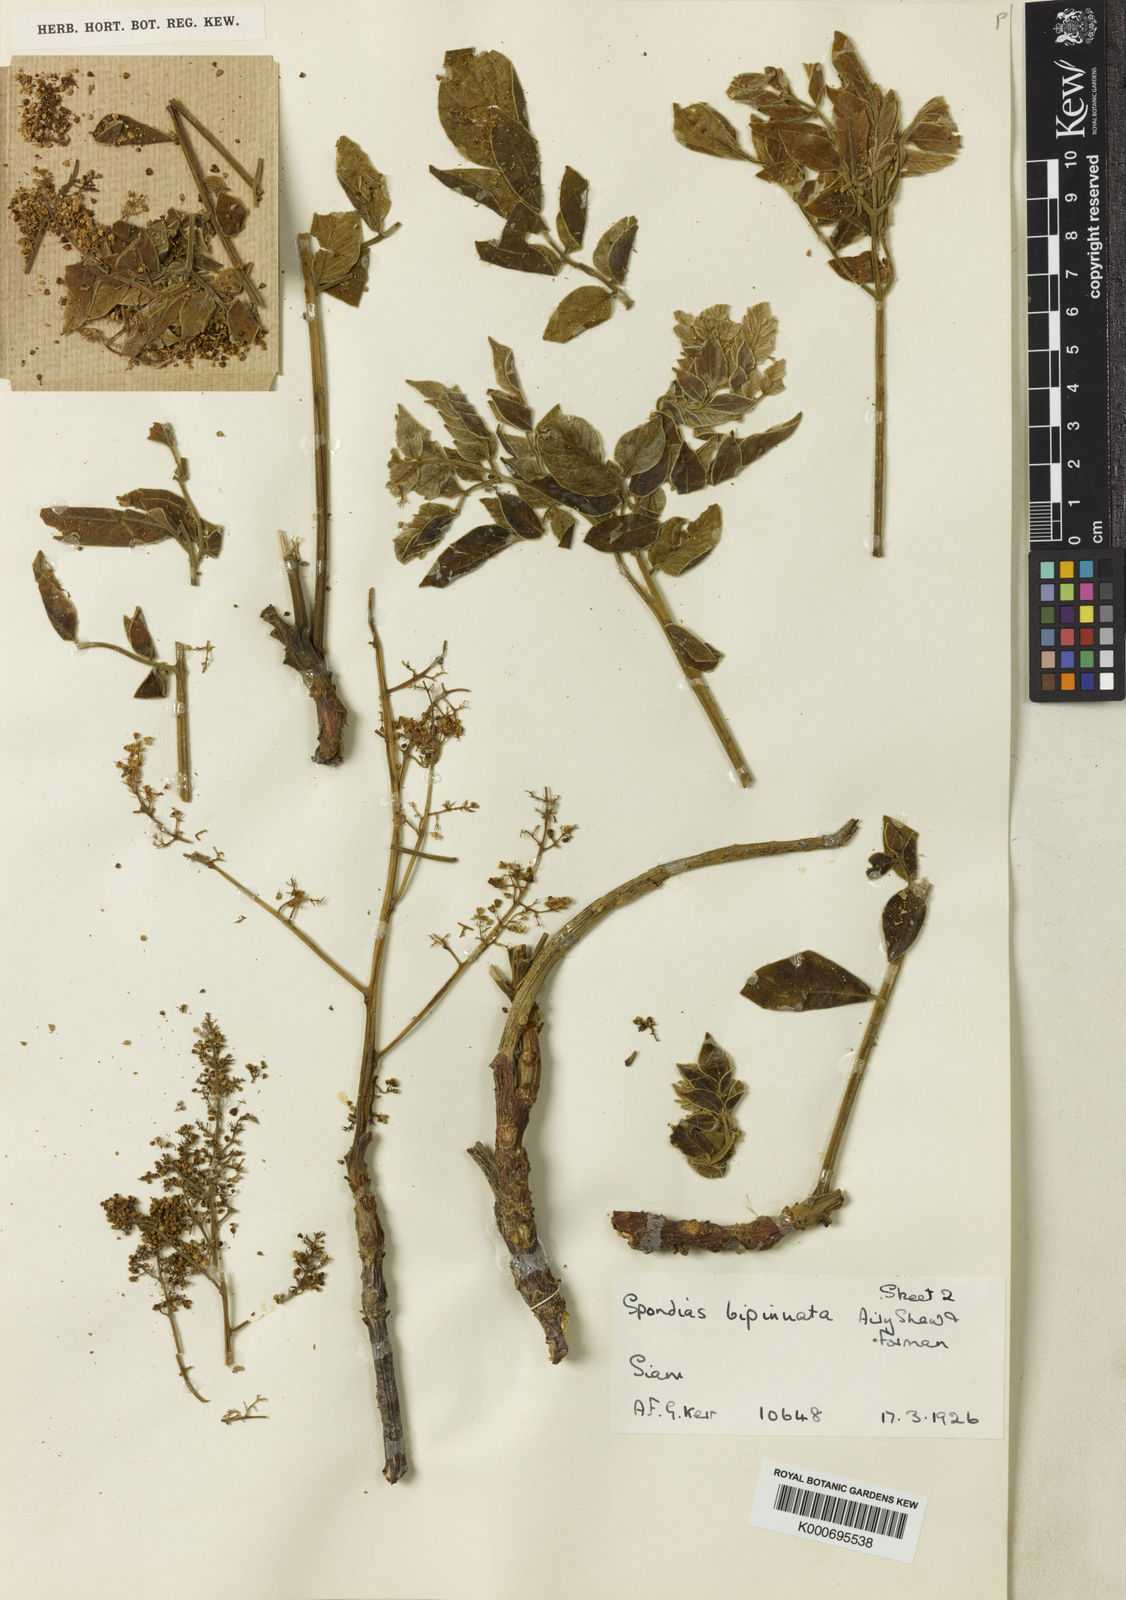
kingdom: Plantae
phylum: Tracheophyta
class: Magnoliopsida
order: Sapindales
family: Anacardiaceae
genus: Spondias
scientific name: Spondias bipinnata
